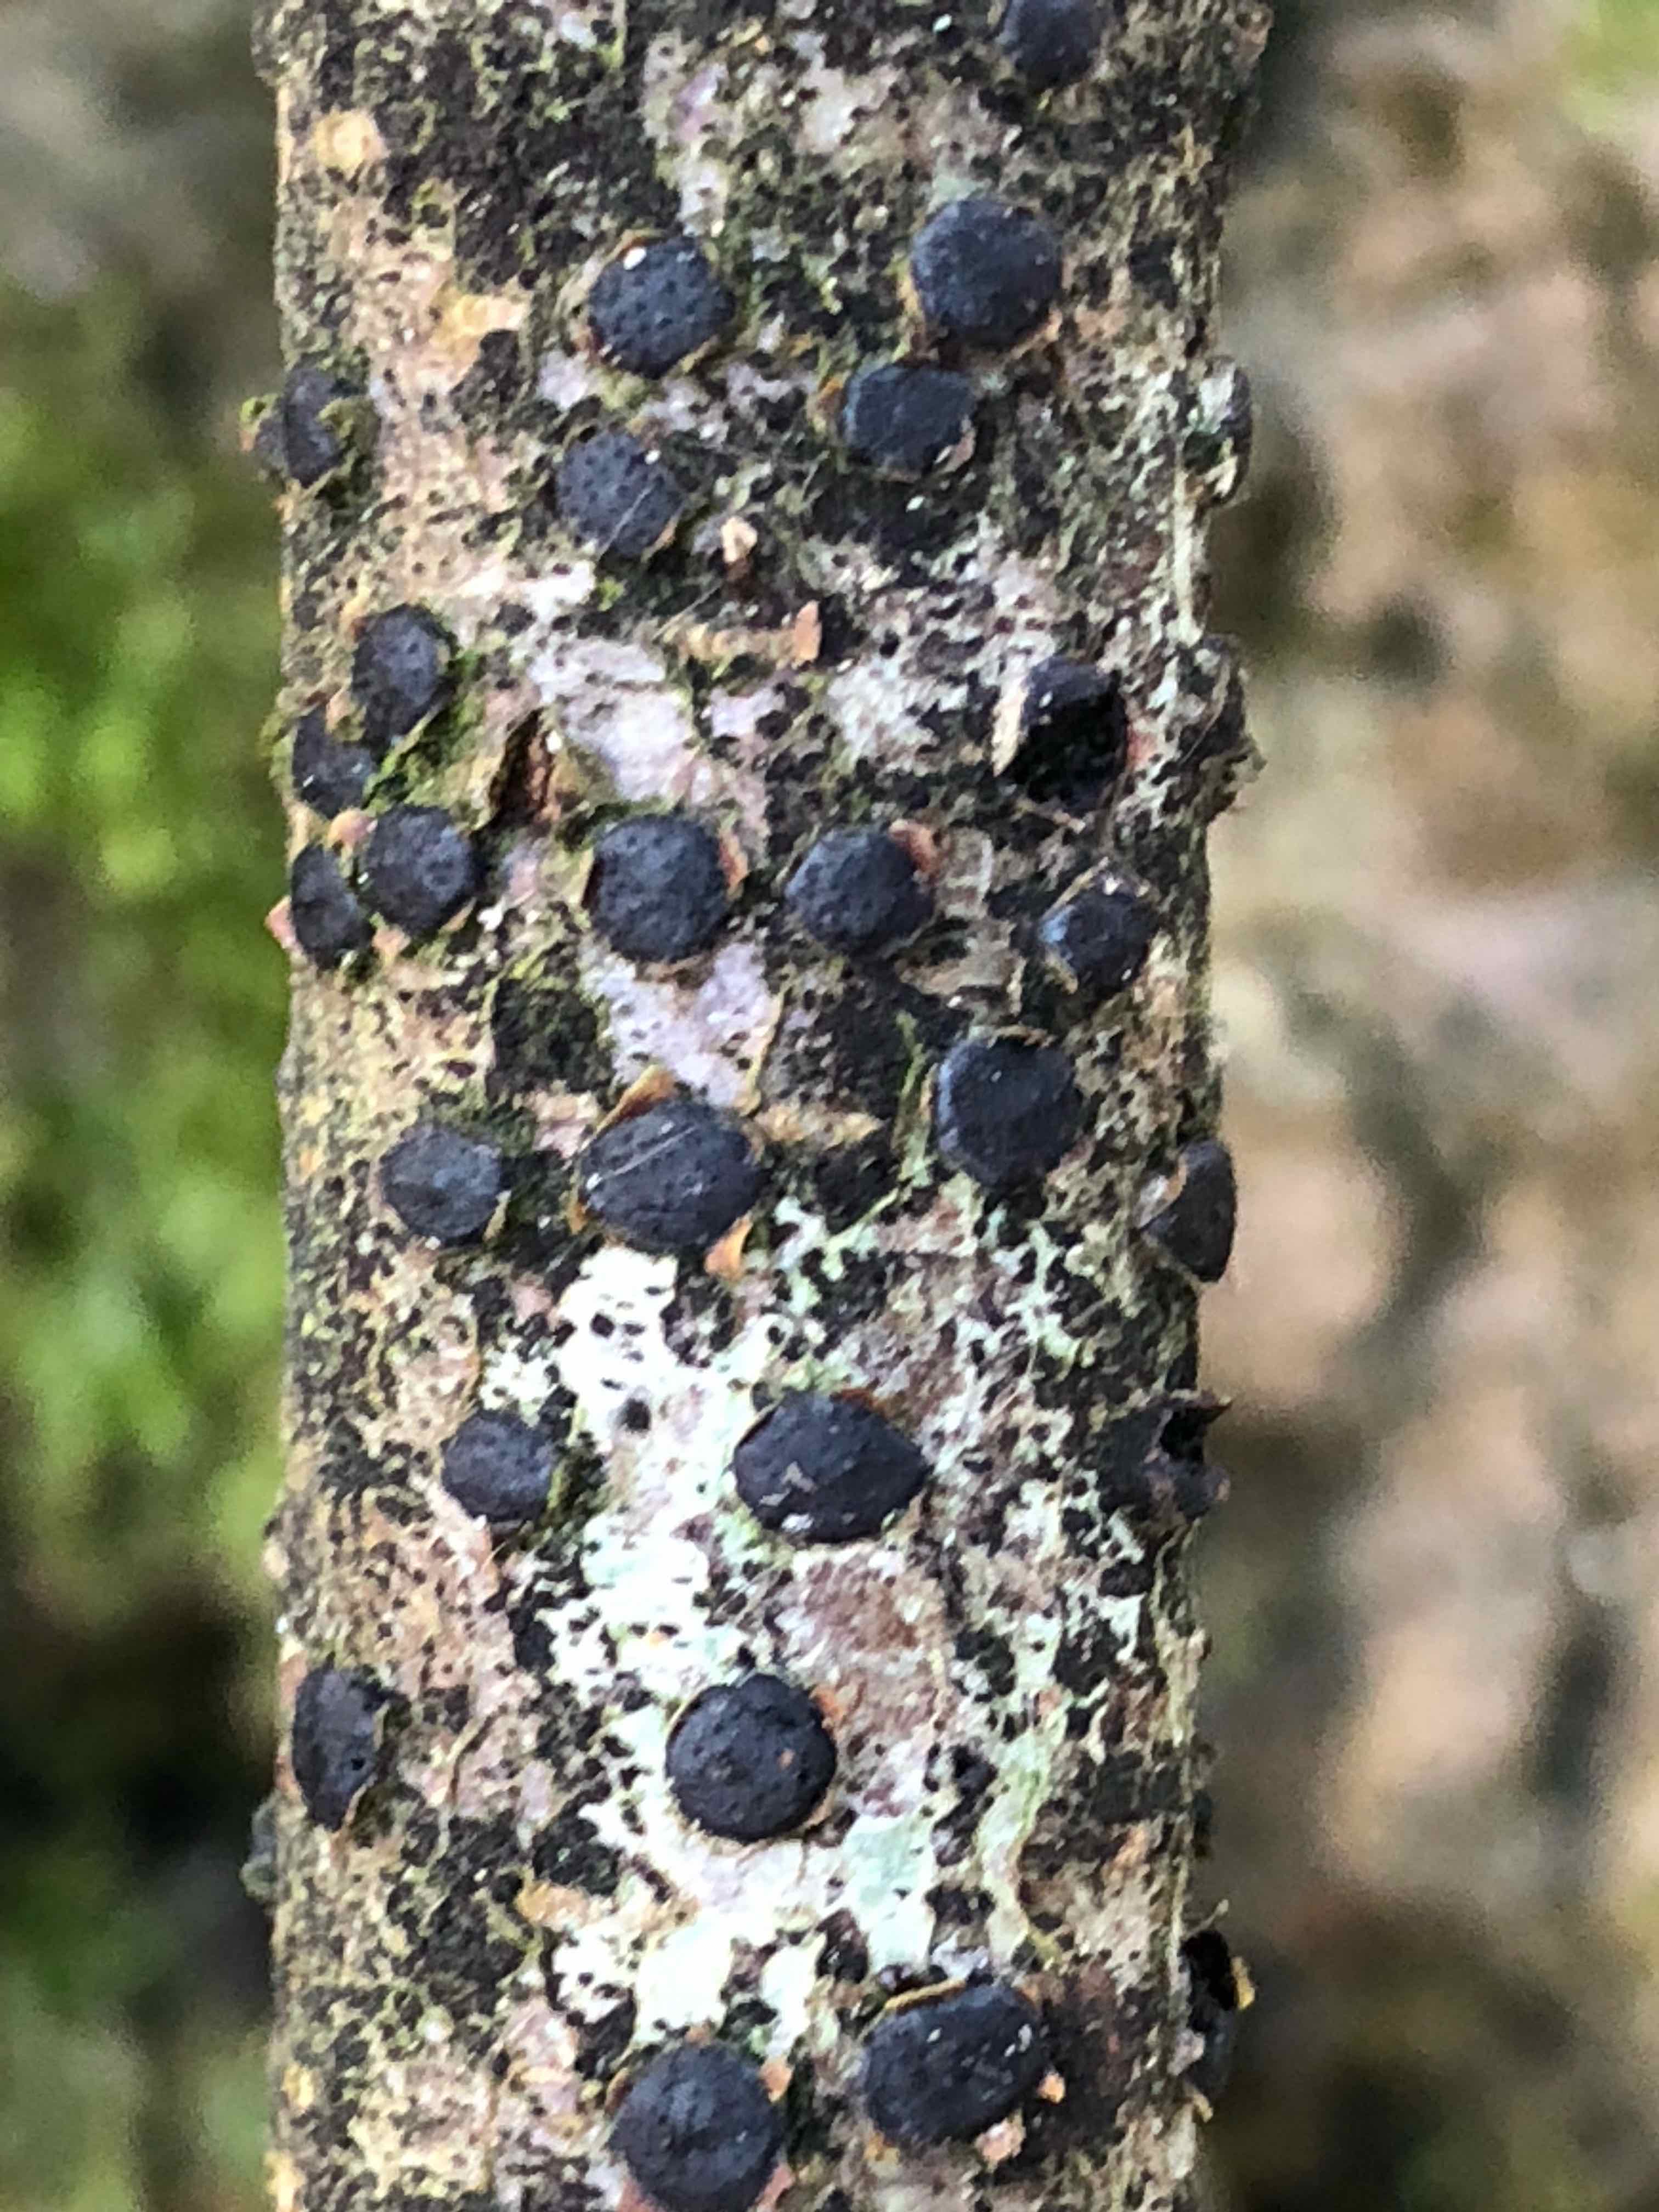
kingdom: Fungi
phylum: Ascomycota
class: Sordariomycetes
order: Xylariales
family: Diatrypaceae
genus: Diatrype
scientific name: Diatrype disciformis
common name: kant-kulskorpe
